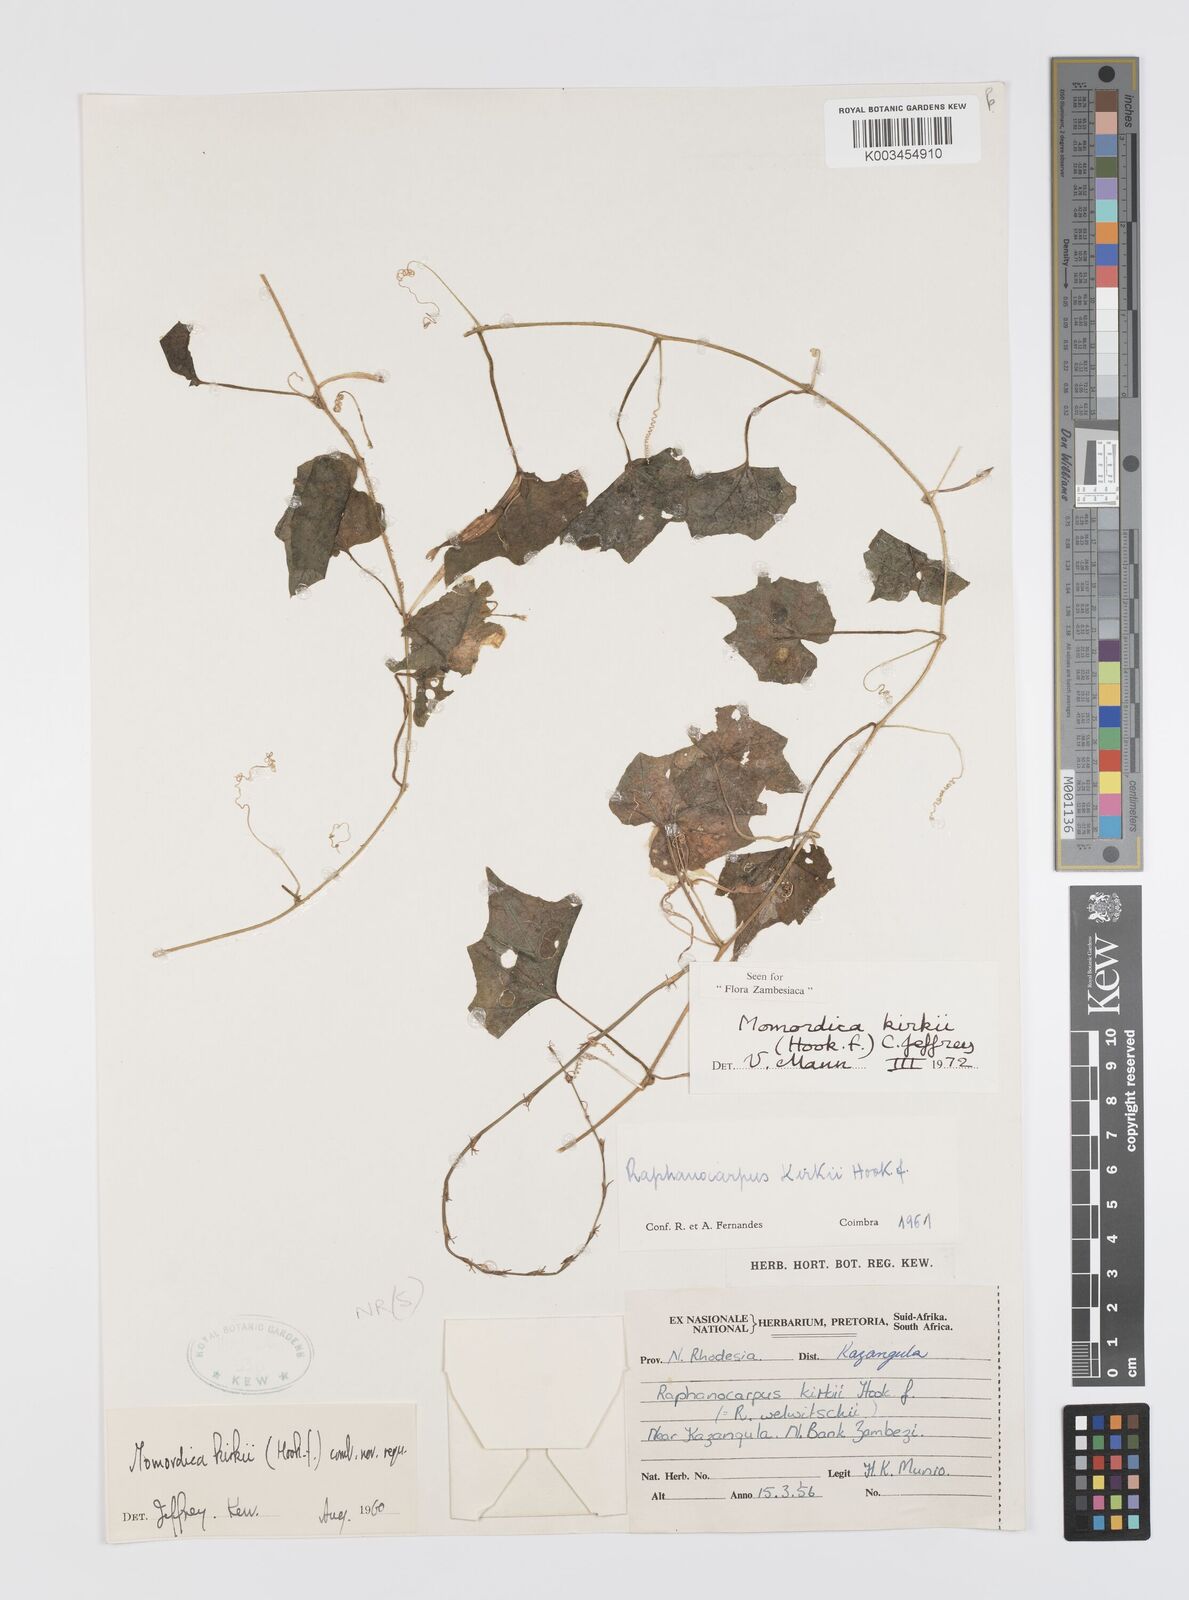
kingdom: Plantae
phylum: Tracheophyta
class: Magnoliopsida
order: Cucurbitales
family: Cucurbitaceae
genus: Momordica
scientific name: Momordica kirkii
